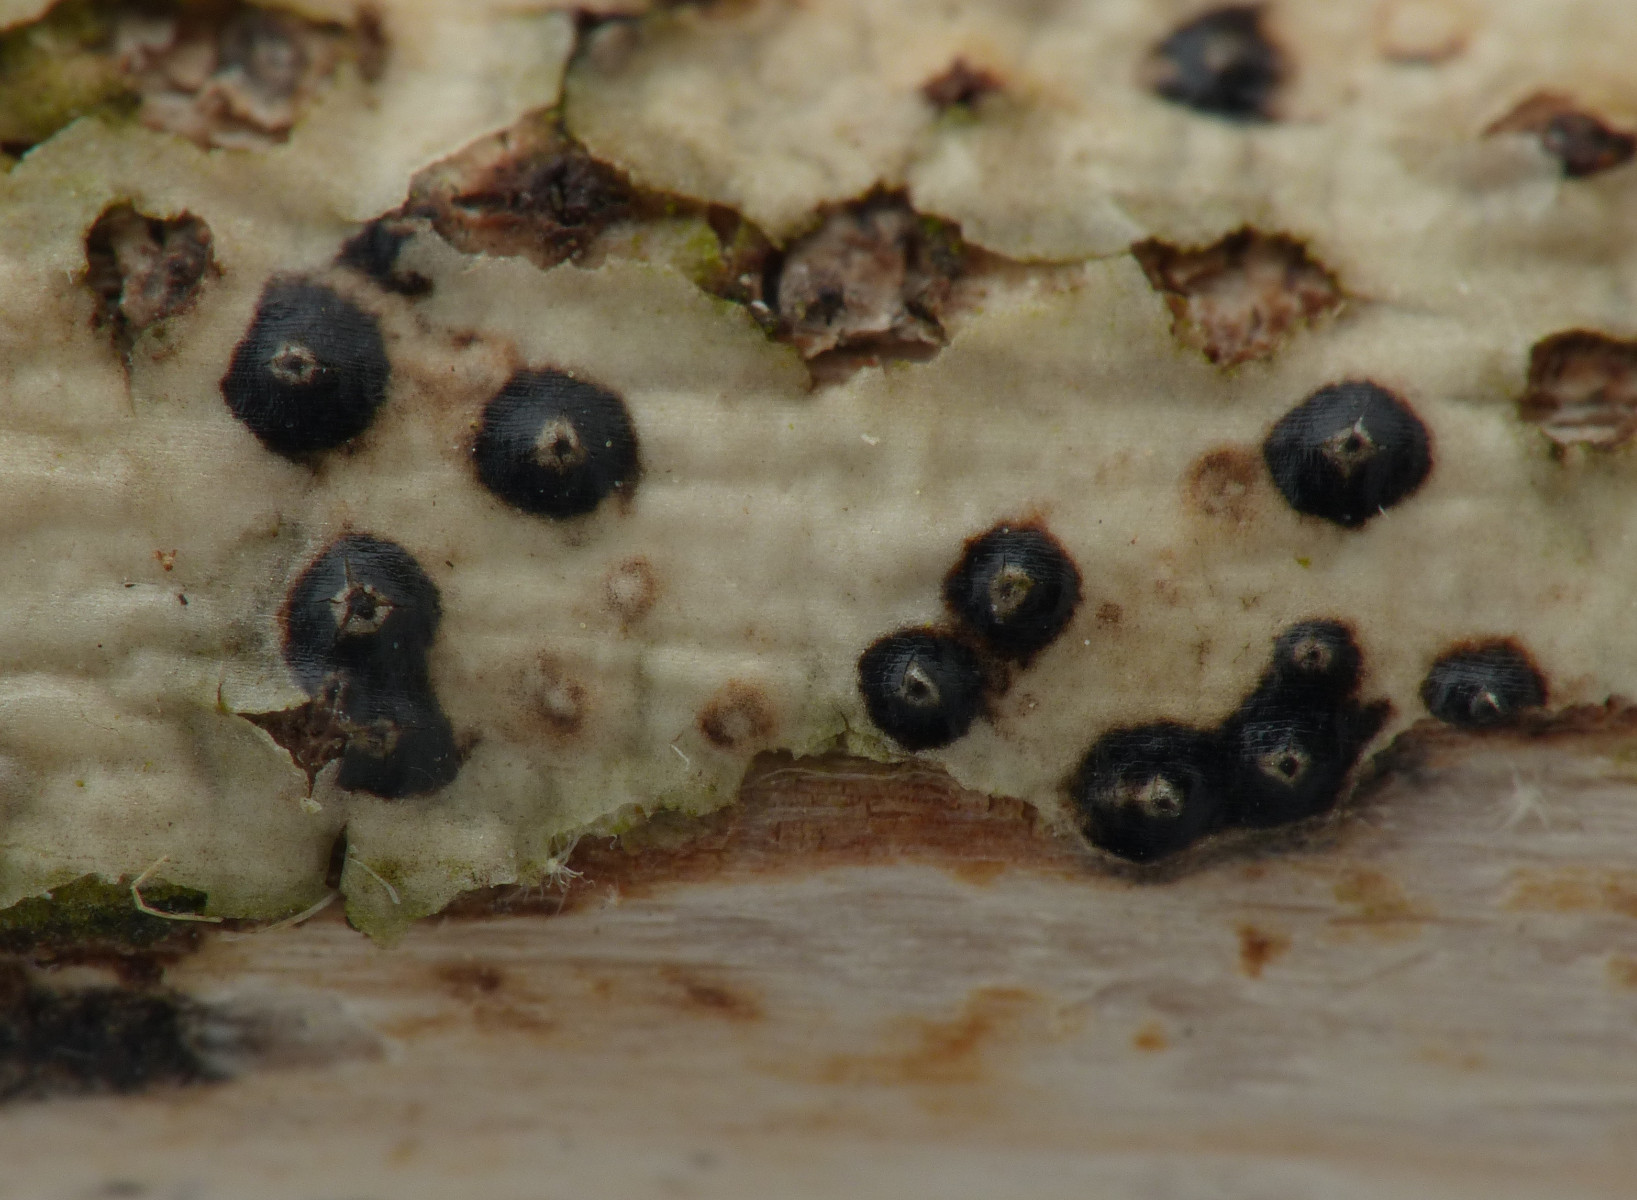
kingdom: Fungi
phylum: Ascomycota
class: Sordariomycetes
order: Amphisphaeriales
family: Clypeosphaeriaceae
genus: Clypeosphaeria
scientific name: Clypeosphaeria mamillana
